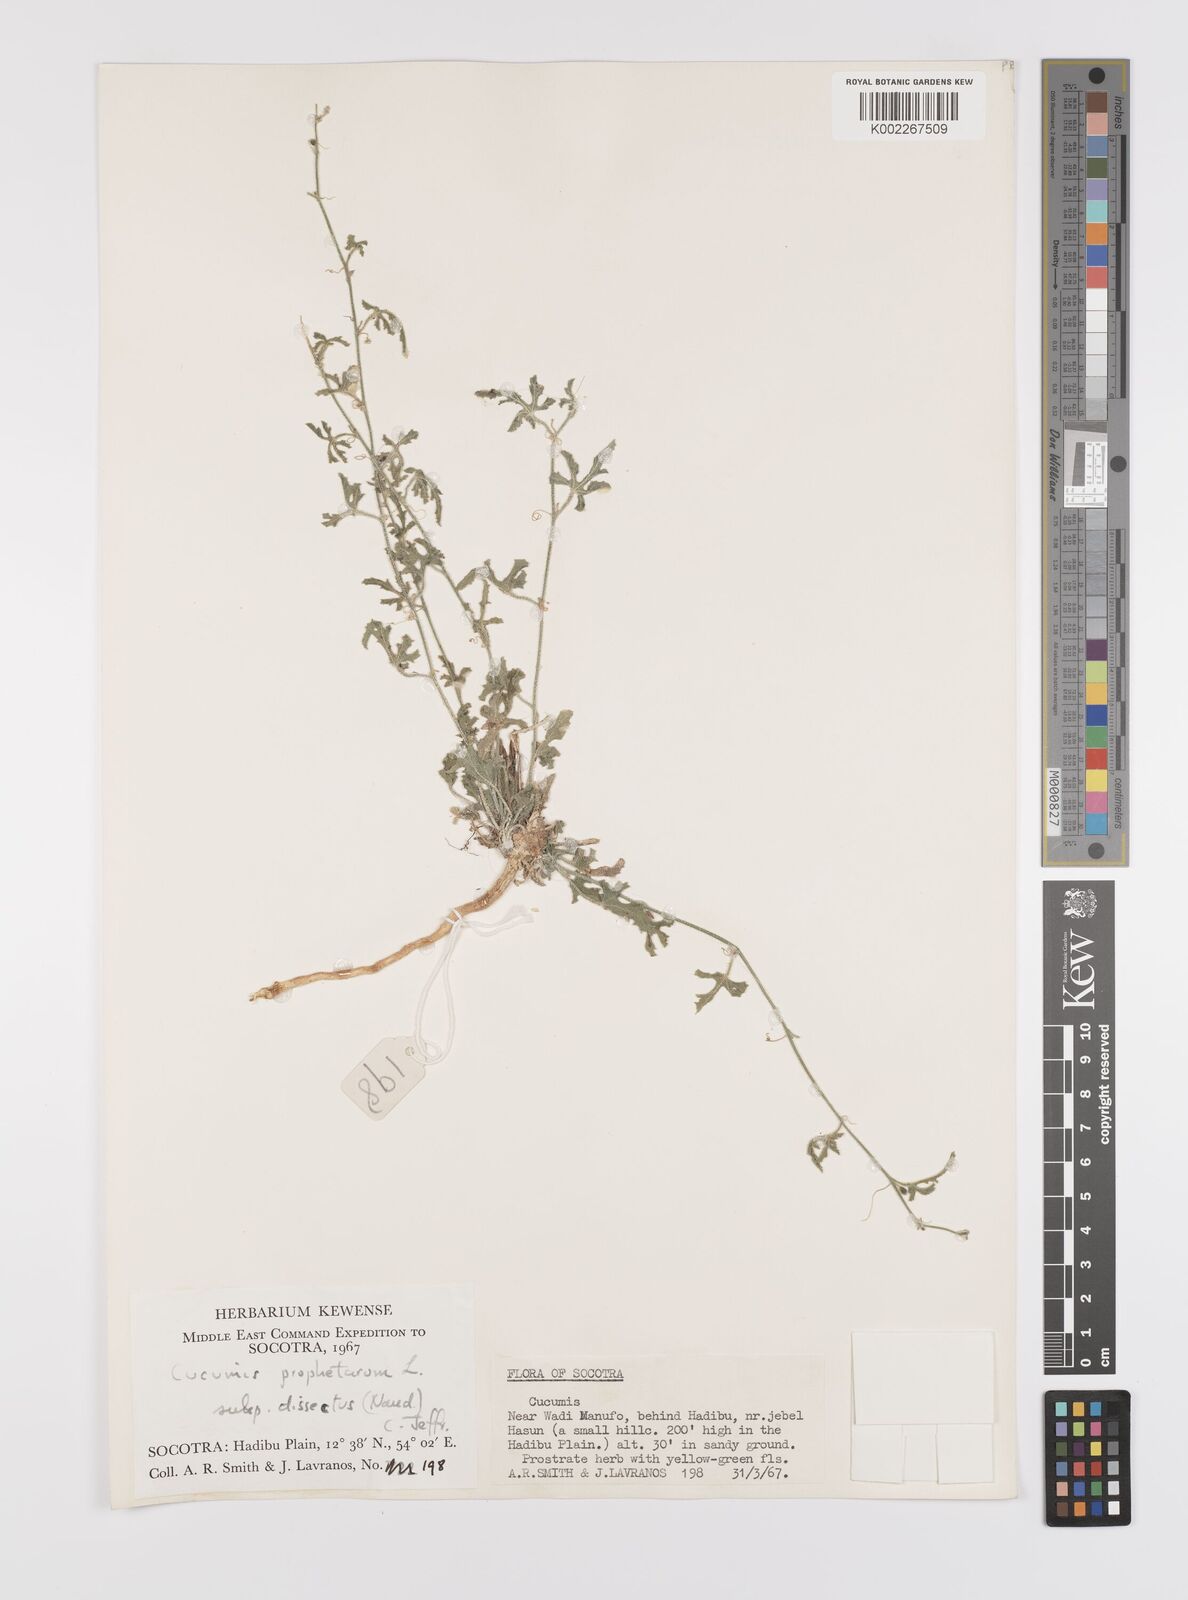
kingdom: Plantae
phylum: Tracheophyta
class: Magnoliopsida
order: Cucurbitales
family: Cucurbitaceae
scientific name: Cucurbitaceae
